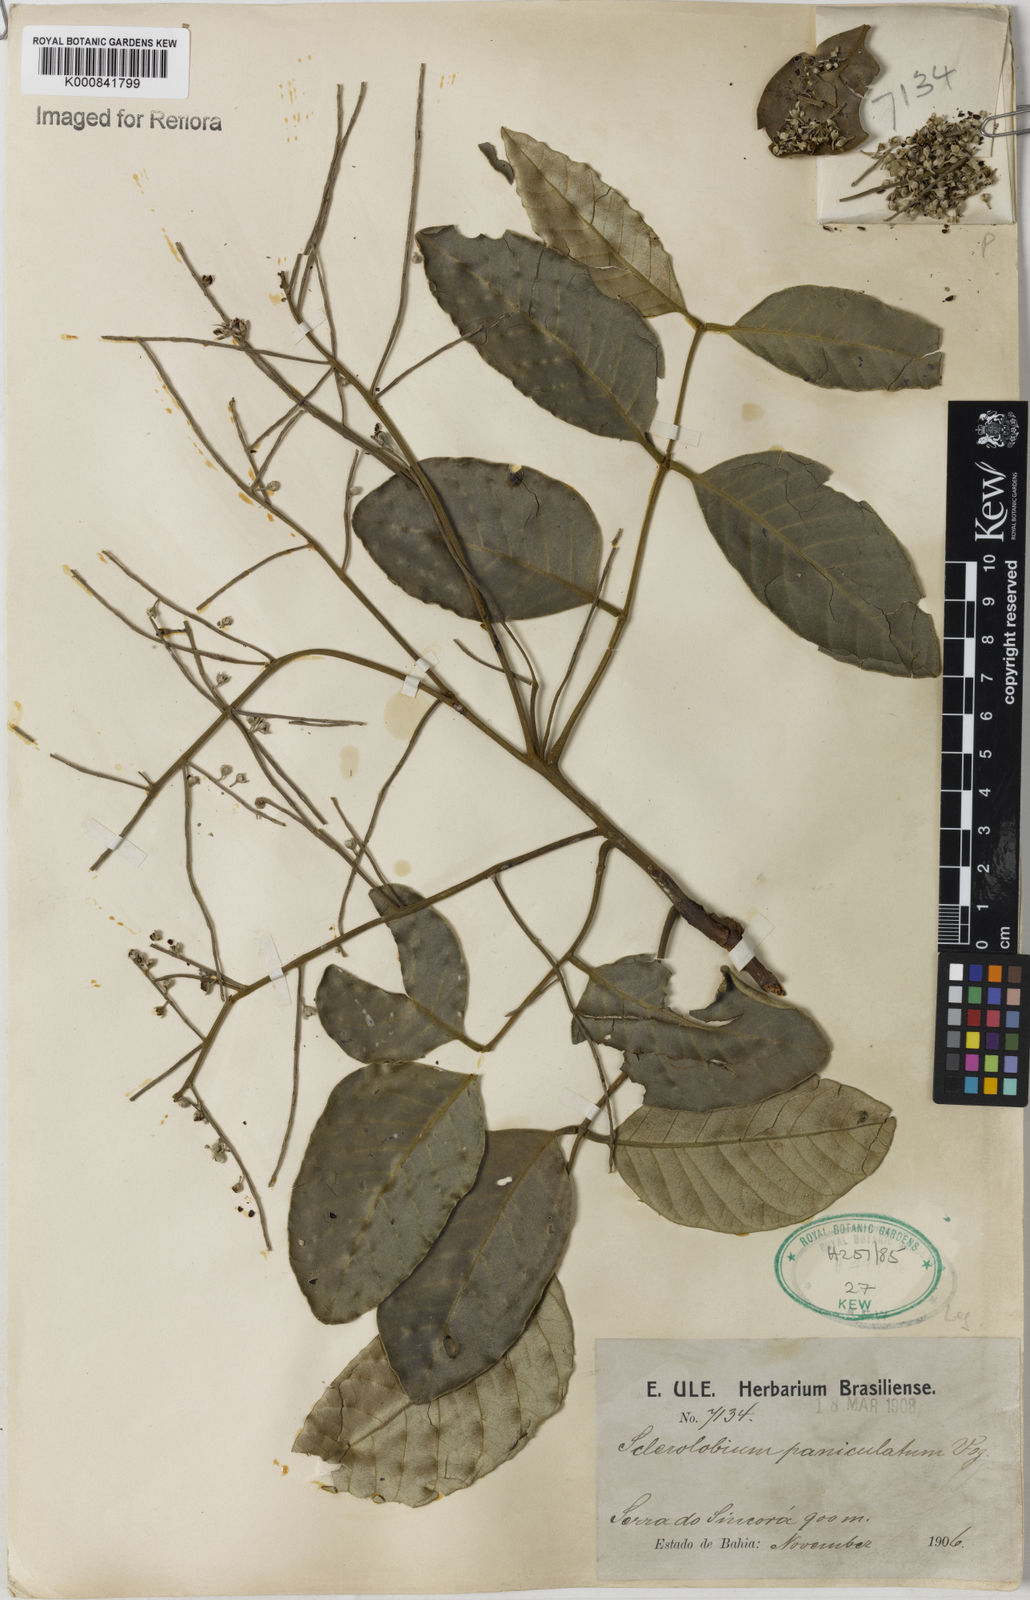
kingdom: Plantae
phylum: Tracheophyta
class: Magnoliopsida
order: Fabales
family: Fabaceae
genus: Tachigali
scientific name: Tachigali subvelutina
